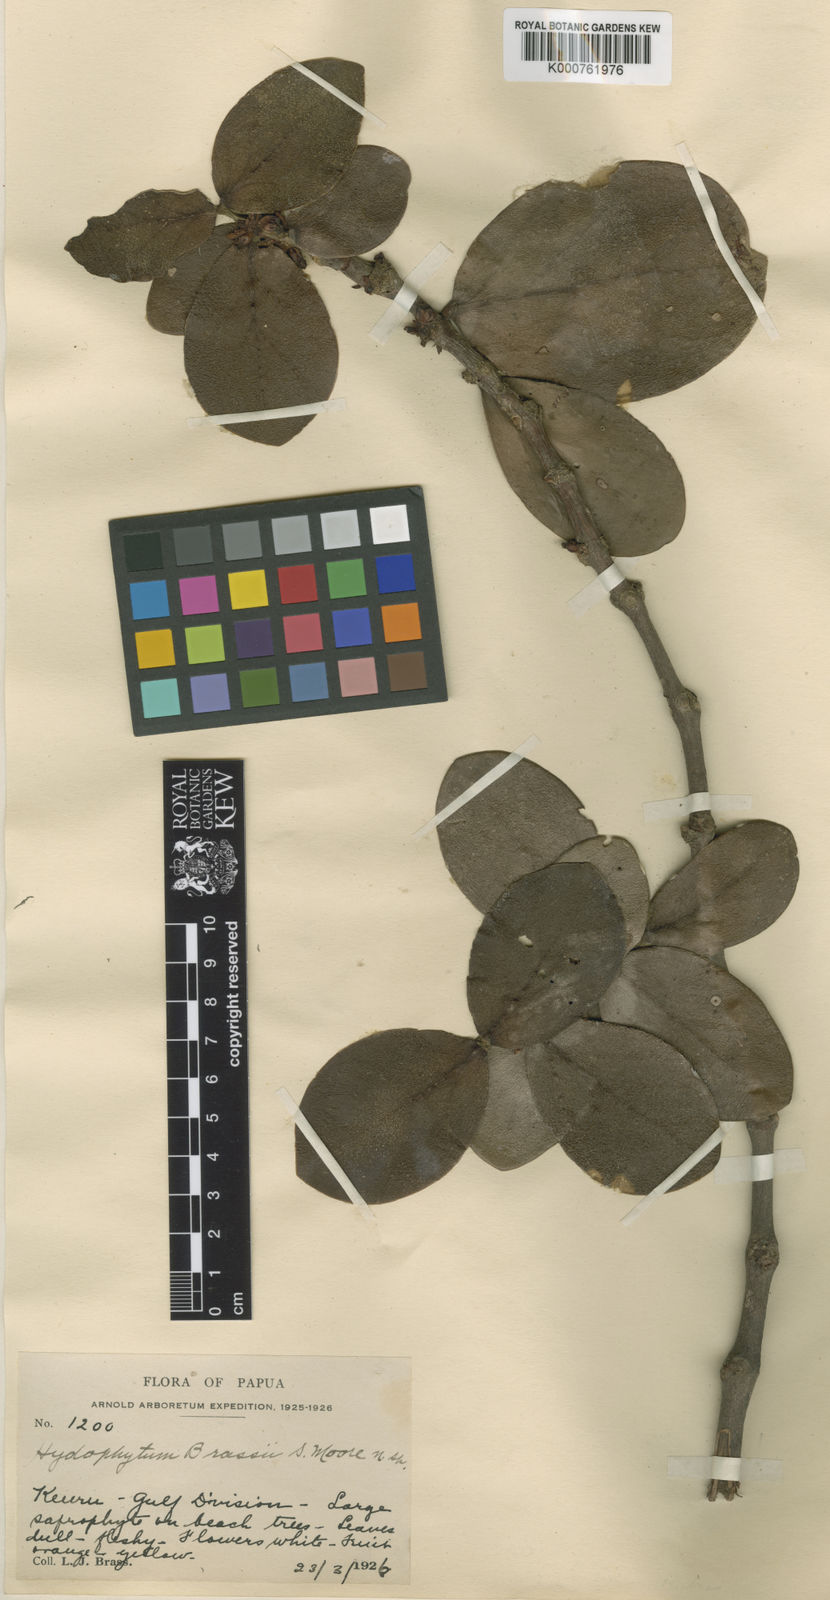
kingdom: Plantae
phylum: Tracheophyta
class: Magnoliopsida
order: Gentianales
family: Rubiaceae
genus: Hydnophytum
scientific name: Hydnophytum moseleyanum
